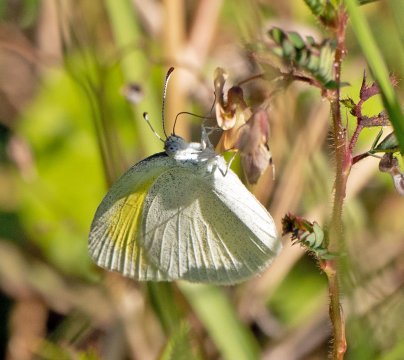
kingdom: Animalia
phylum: Arthropoda
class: Insecta
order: Lepidoptera
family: Pieridae
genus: Eurema
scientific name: Eurema daira
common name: Barred Yellow
